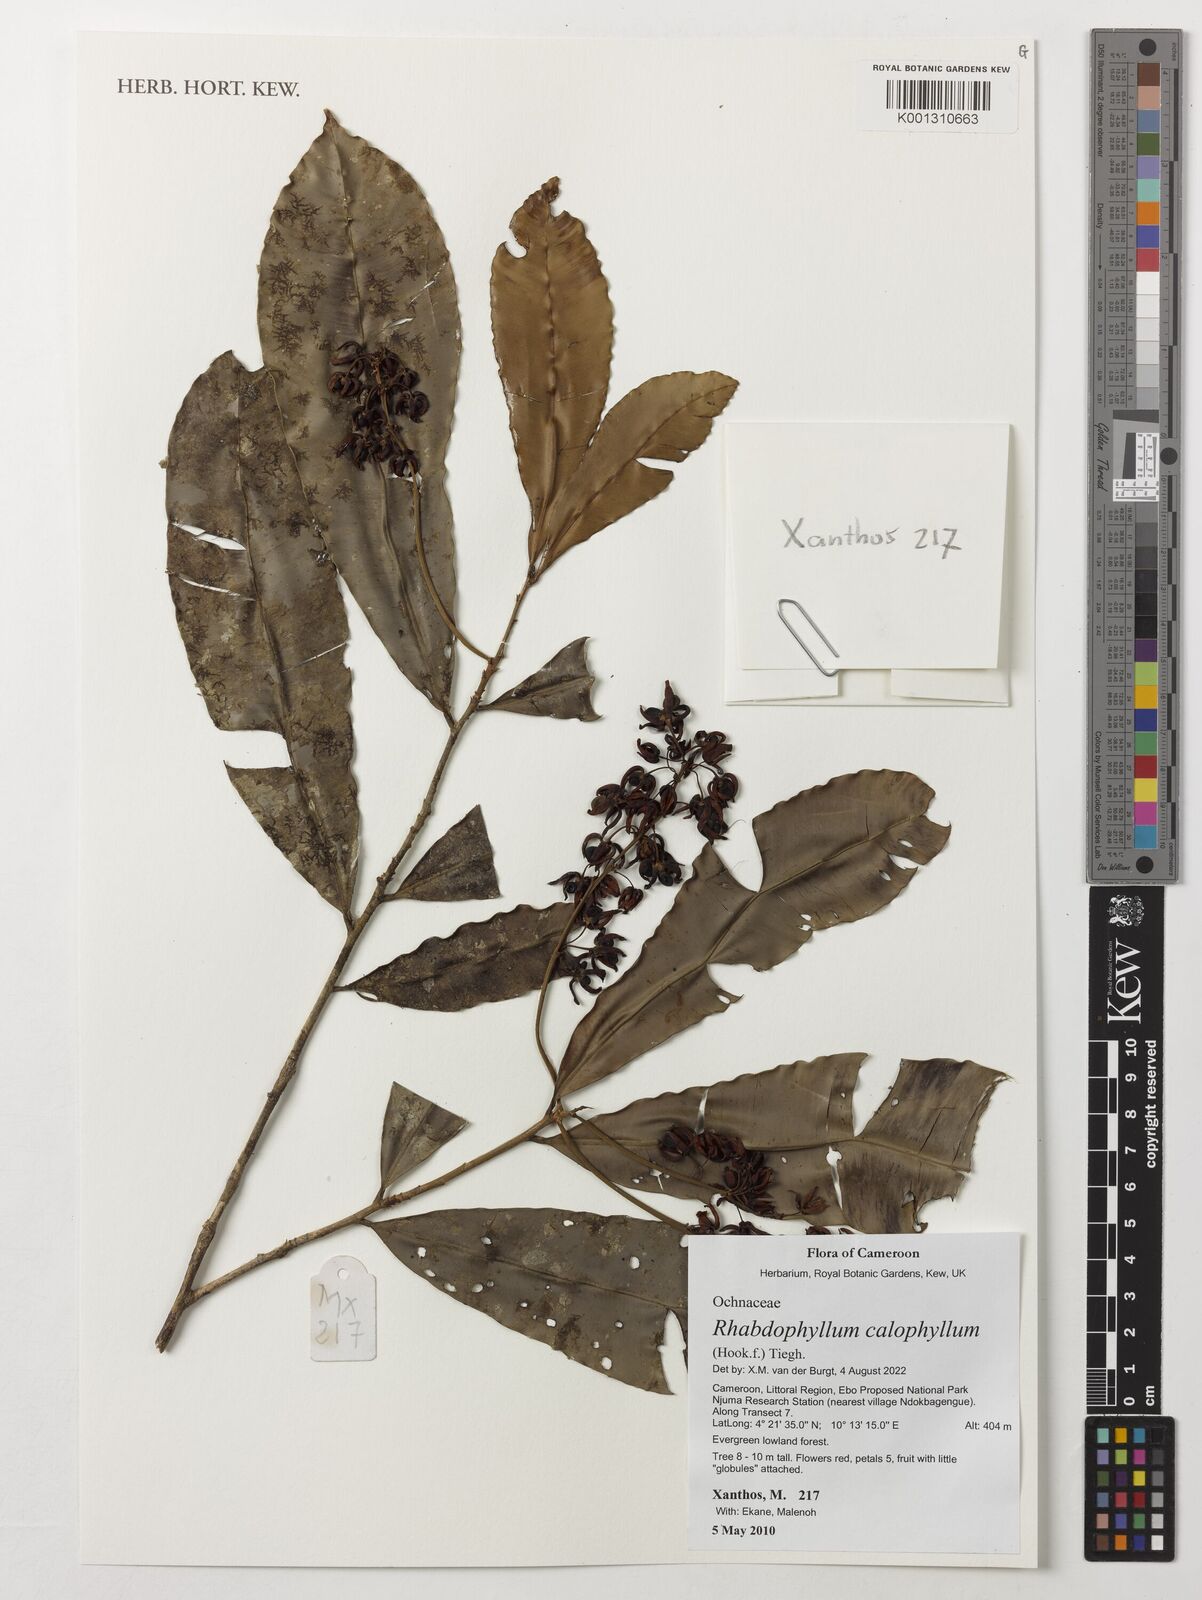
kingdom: Plantae
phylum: Tracheophyta
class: Magnoliopsida
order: Malpighiales
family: Ochnaceae
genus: Rhabdophyllum
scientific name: Rhabdophyllum calophyllum
